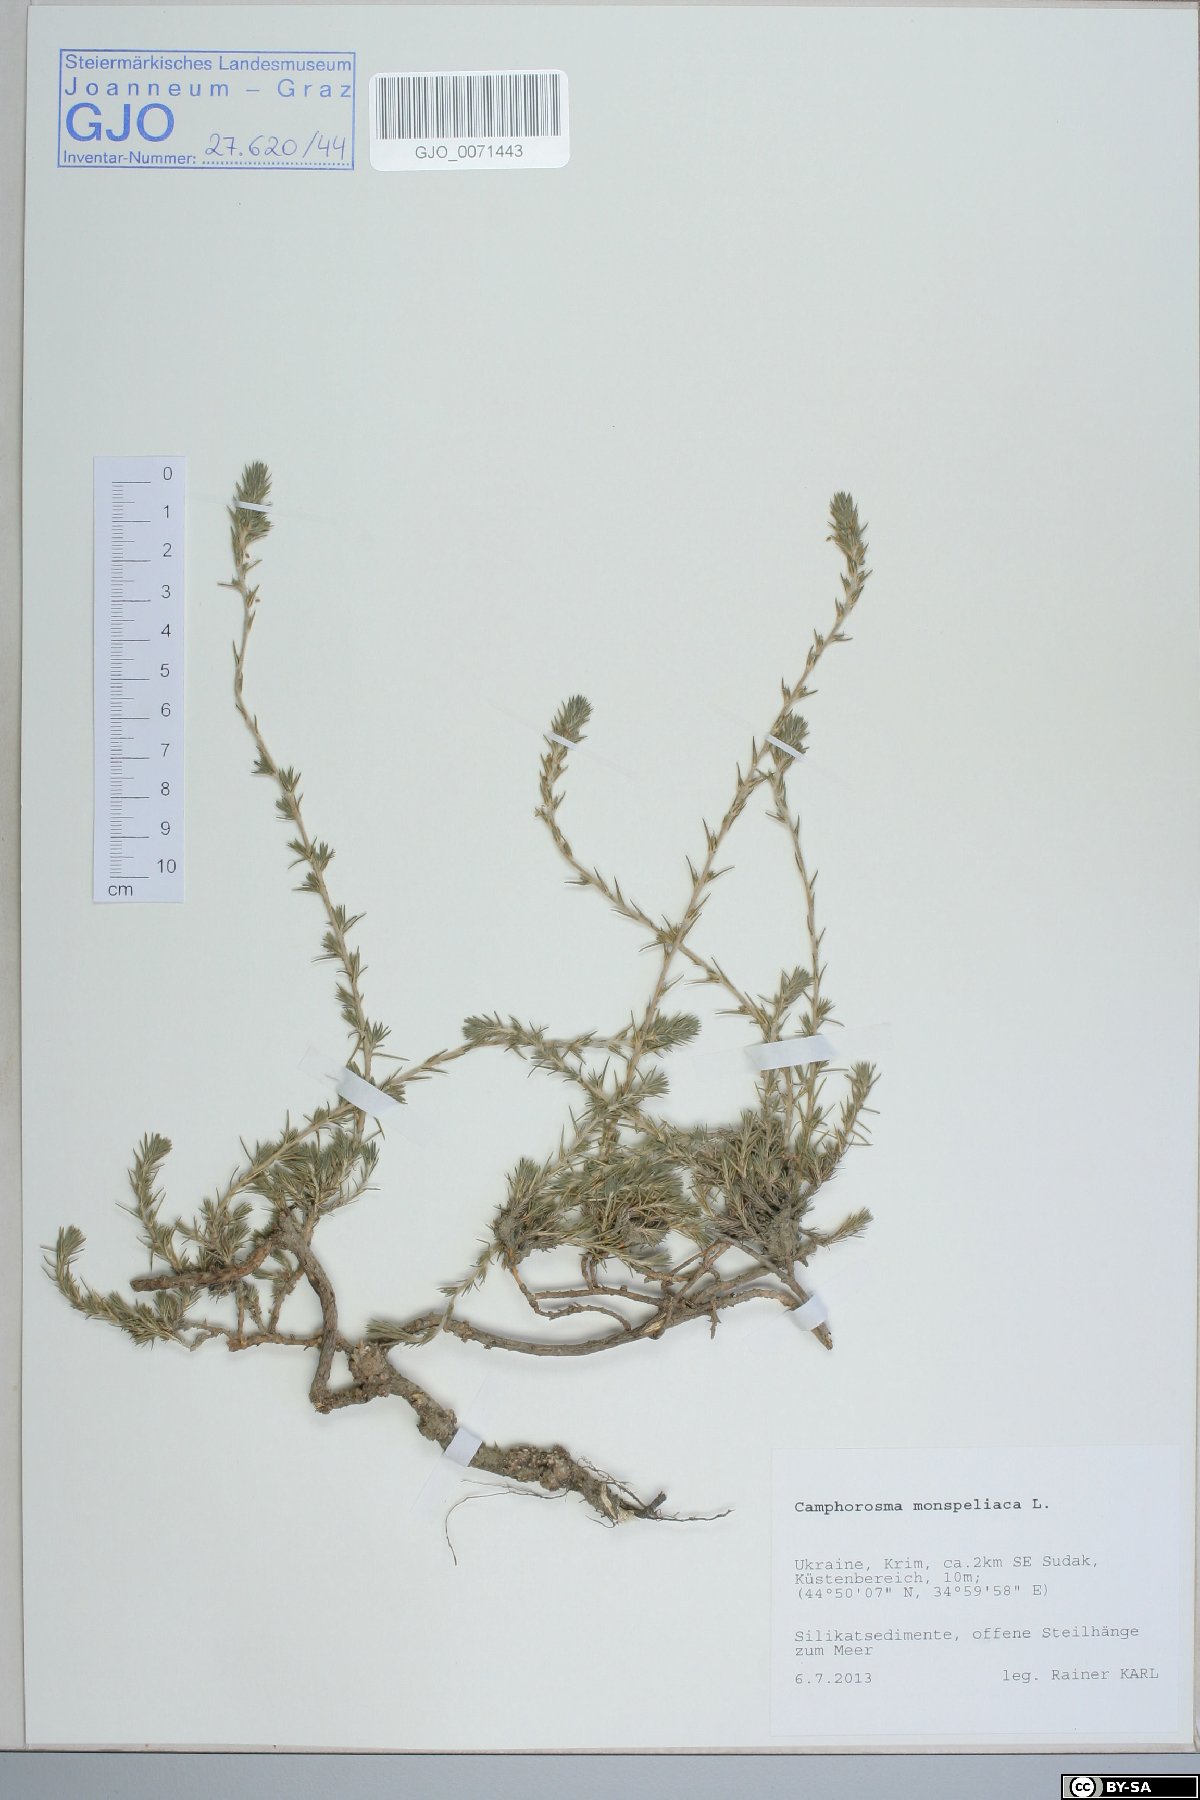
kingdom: Plantae
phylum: Tracheophyta
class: Magnoliopsida
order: Caryophyllales
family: Amaranthaceae
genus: Camphorosma
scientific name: Camphorosma monspeliaca
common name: Camphorfume
